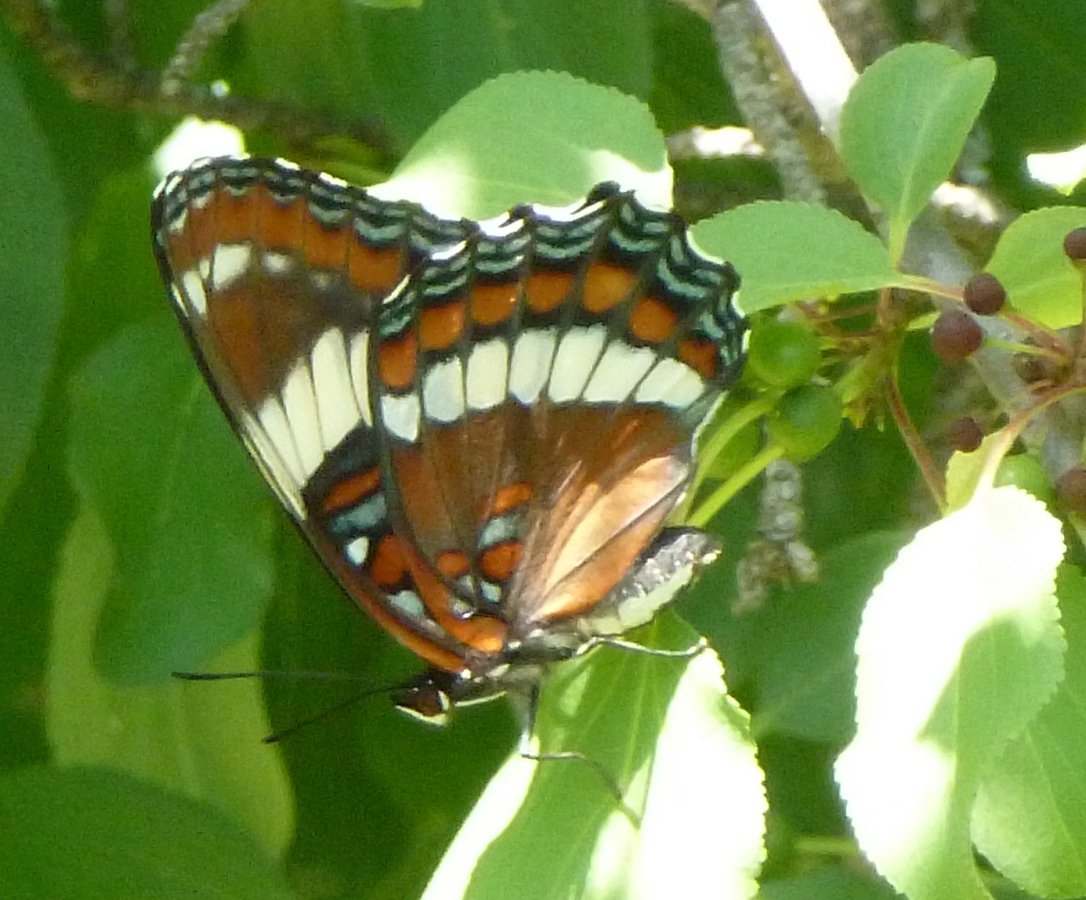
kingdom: Animalia
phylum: Arthropoda
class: Insecta
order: Lepidoptera
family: Nymphalidae
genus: Limenitis
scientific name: Limenitis arthemis
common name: Red-spotted Admiral
